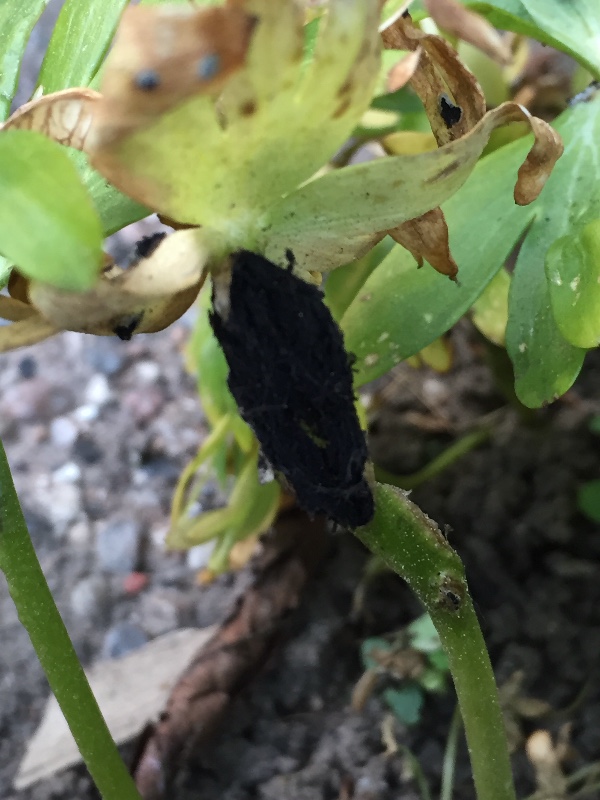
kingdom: Fungi
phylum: Basidiomycota
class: Ustilaginomycetes
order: Urocystidales
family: Urocystidaceae
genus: Urocystis
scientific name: Urocystis eranthidis
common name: erantis-brand
